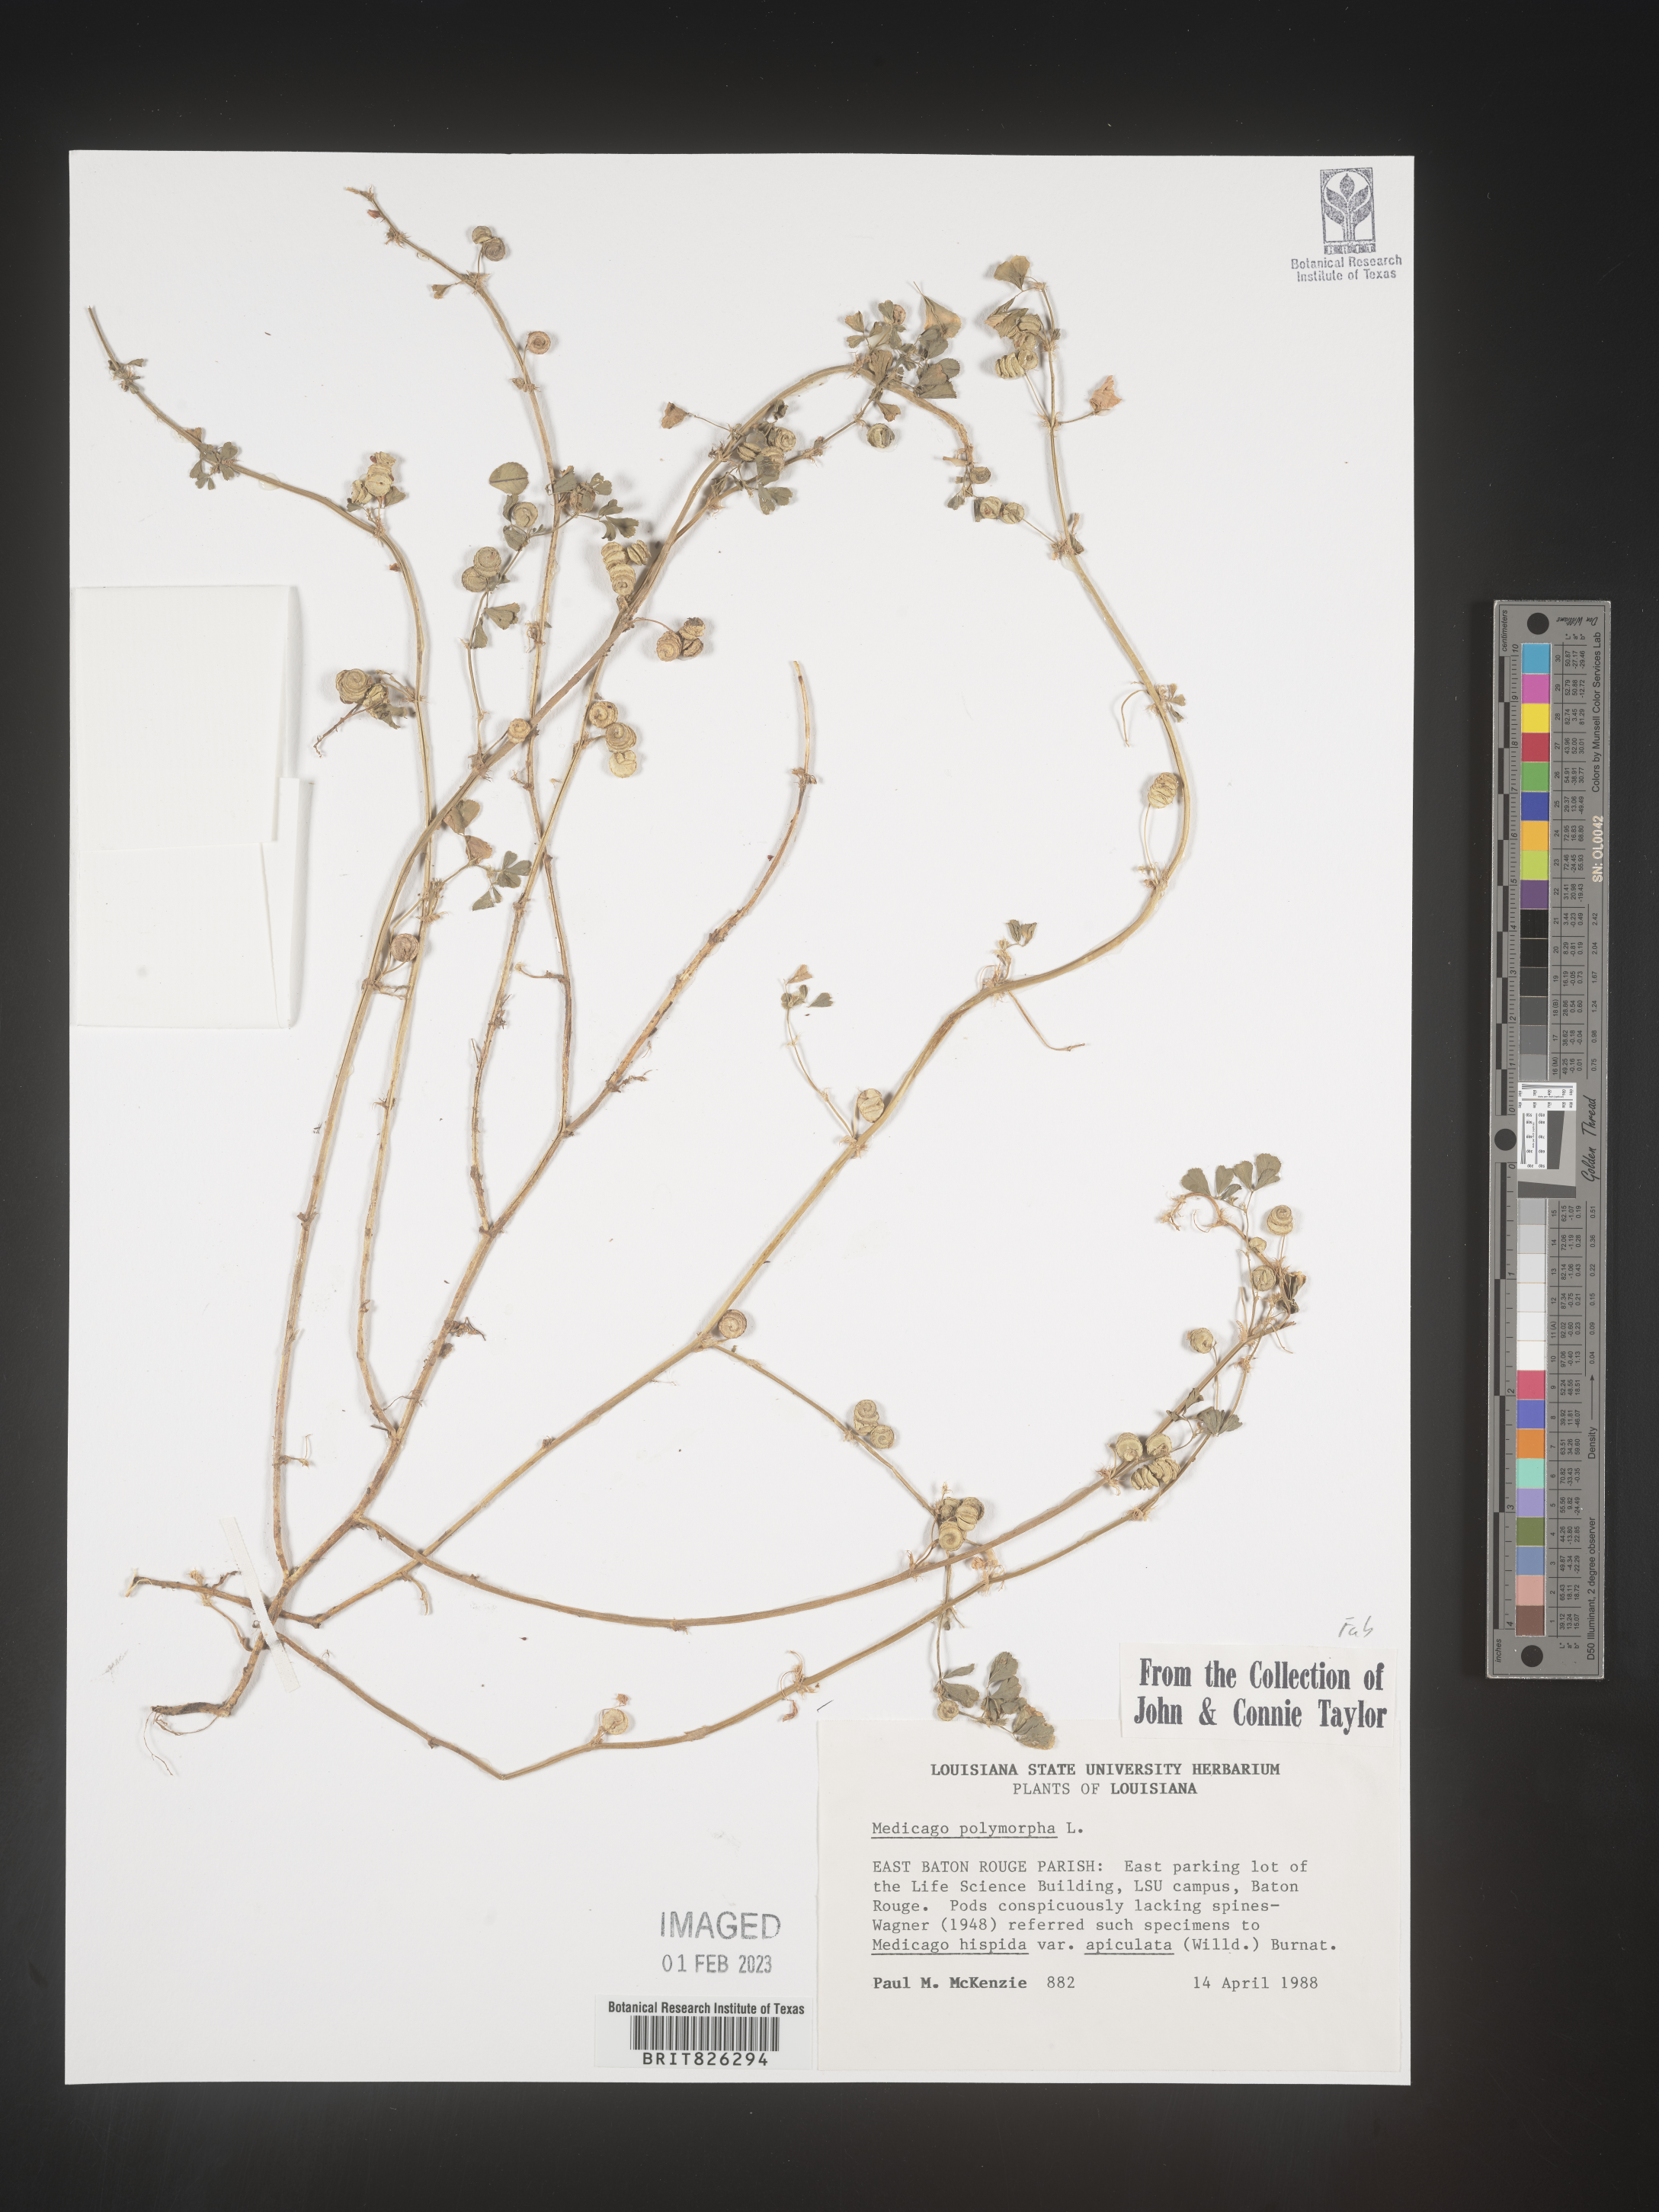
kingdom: Plantae
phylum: Tracheophyta
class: Magnoliopsida
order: Fabales
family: Fabaceae
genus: Medicago
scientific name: Medicago polymorpha
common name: Burclover
